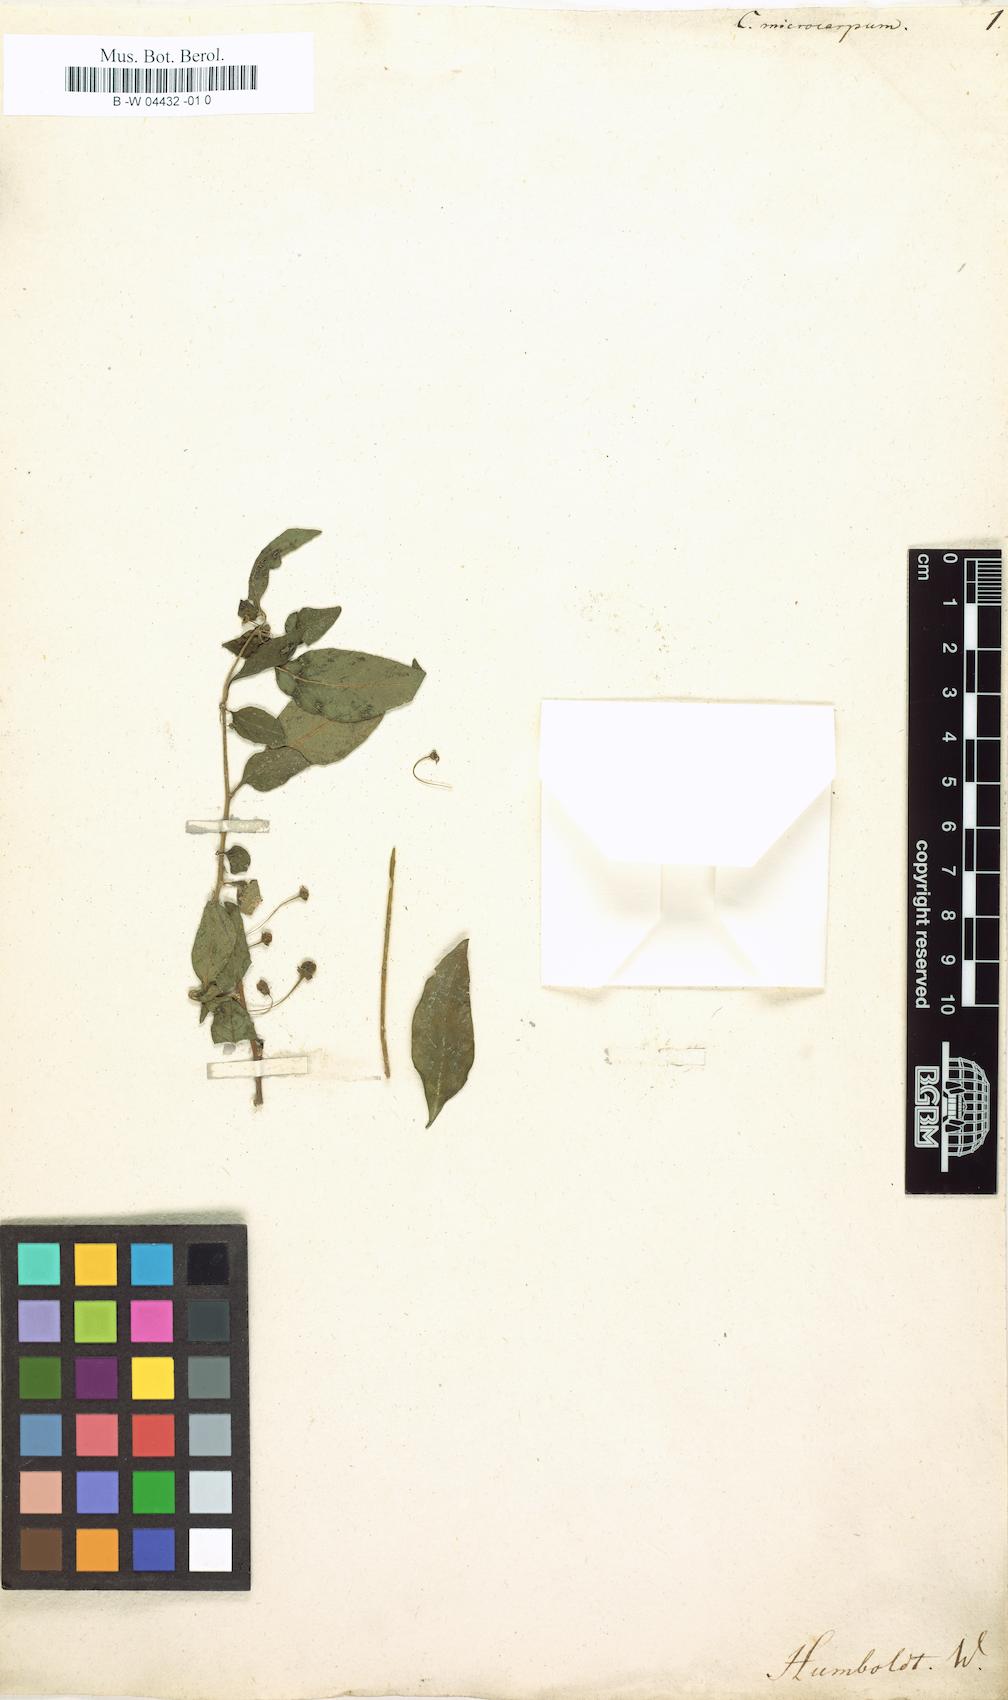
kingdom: Plantae
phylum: Tracheophyta
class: Magnoliopsida
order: Solanales
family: Solanaceae
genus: Capsicum
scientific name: Capsicum baccatum
